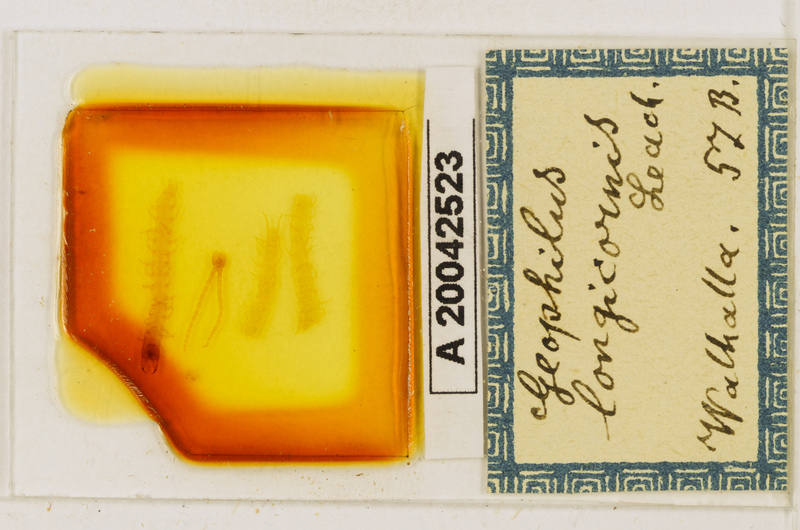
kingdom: Animalia
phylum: Arthropoda
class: Chilopoda
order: Geophilomorpha
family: Geophilidae
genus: Geophilus
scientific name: Geophilus flavus
